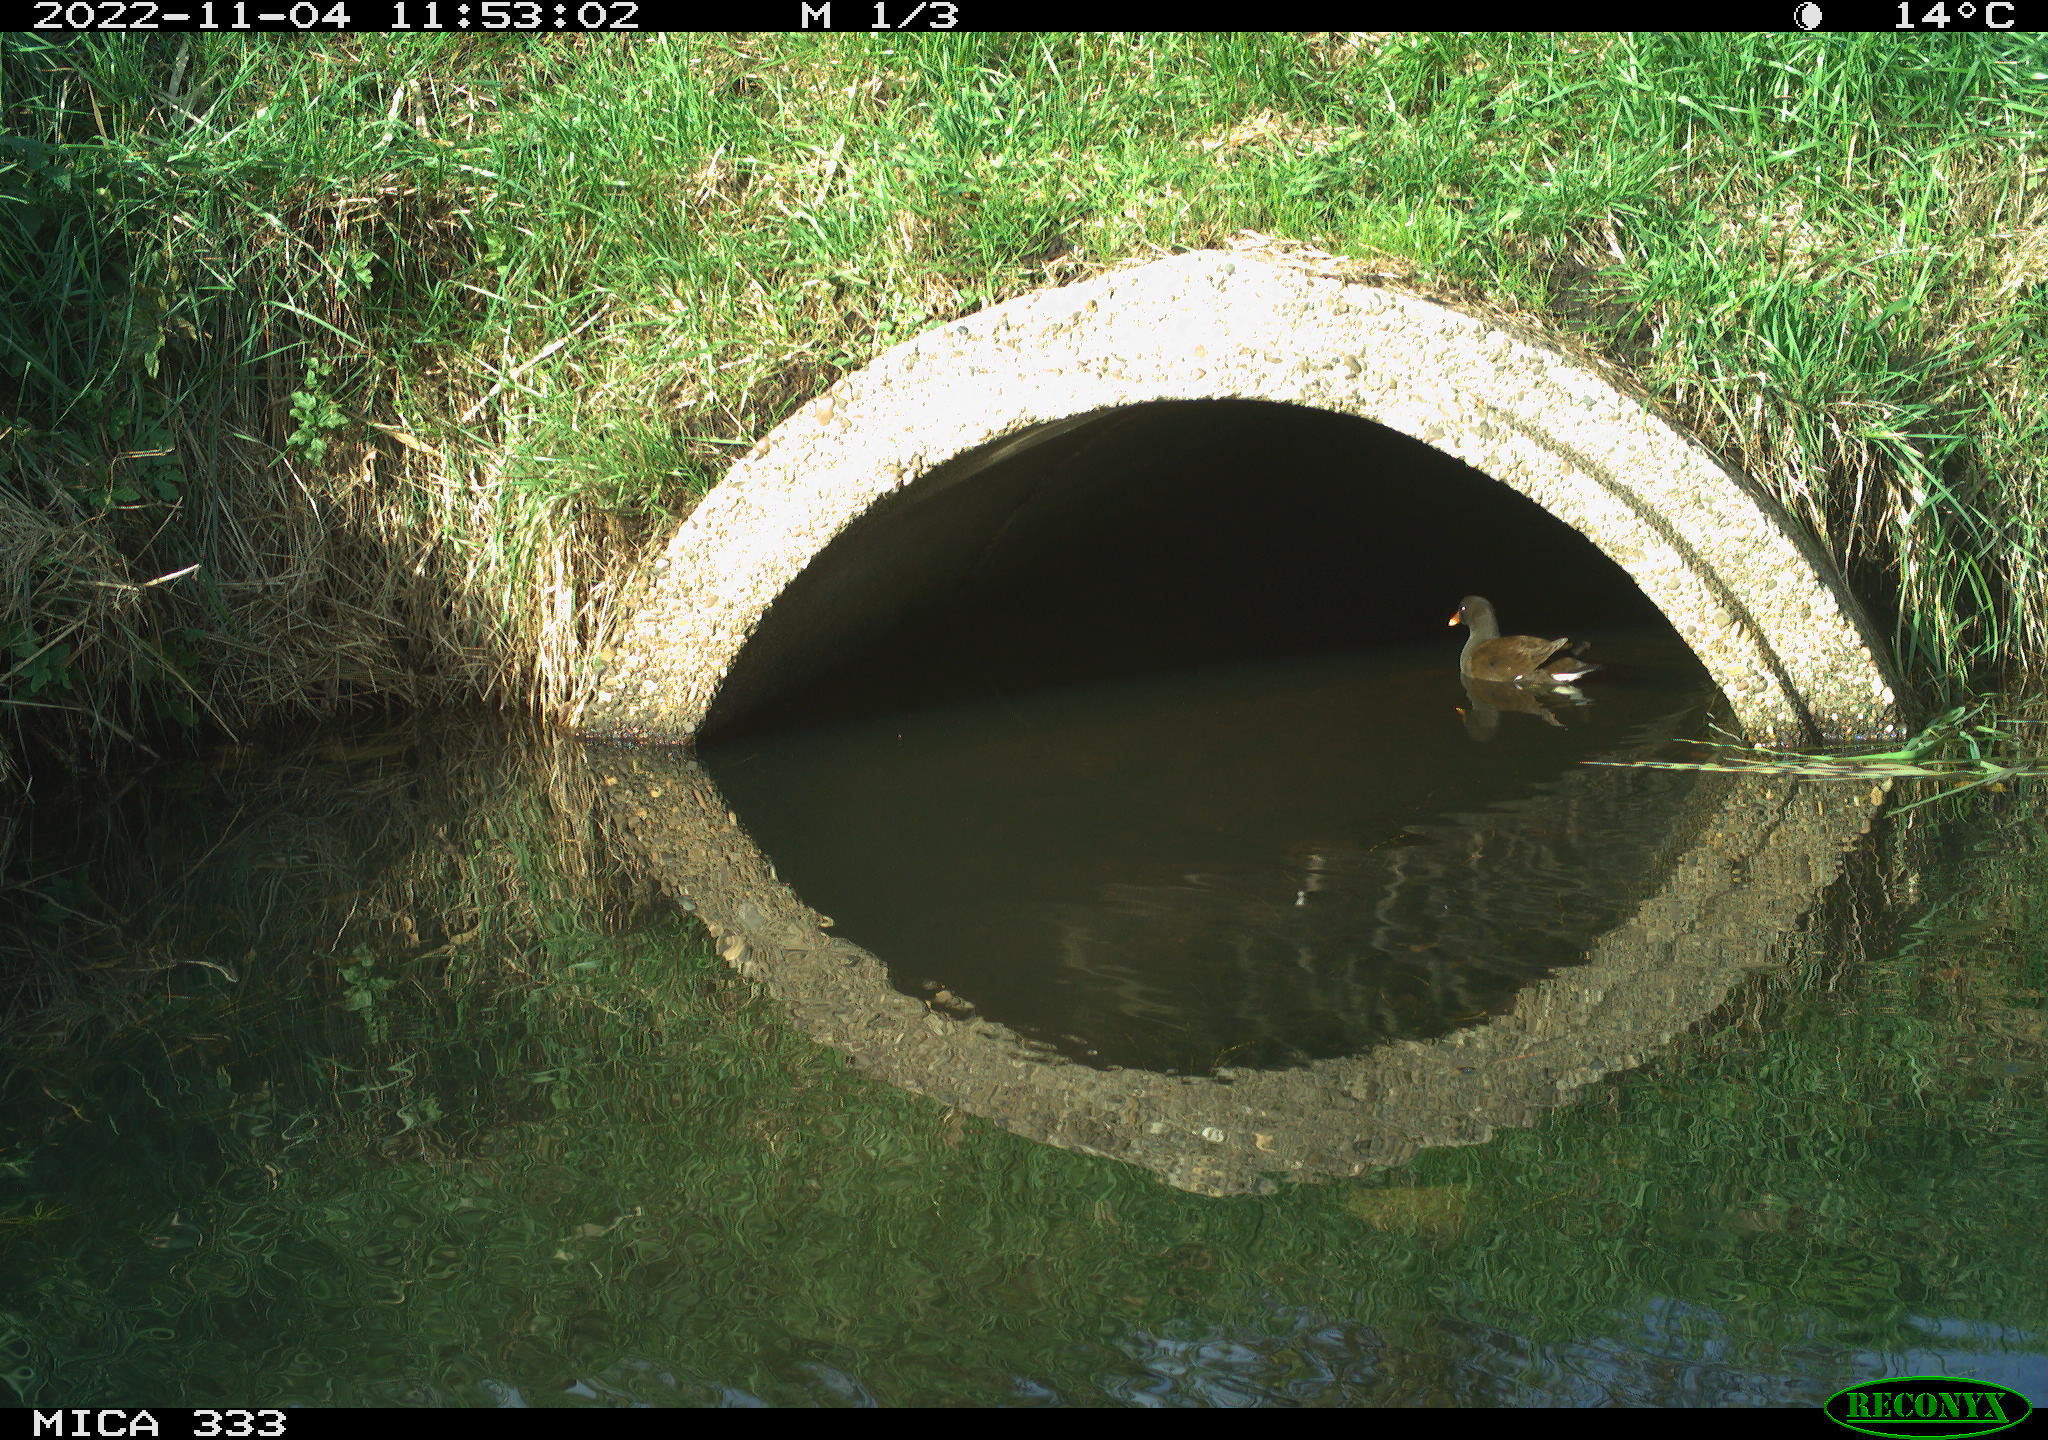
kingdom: Animalia
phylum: Chordata
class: Aves
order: Gruiformes
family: Rallidae
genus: Gallinula
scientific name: Gallinula chloropus
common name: Common moorhen
